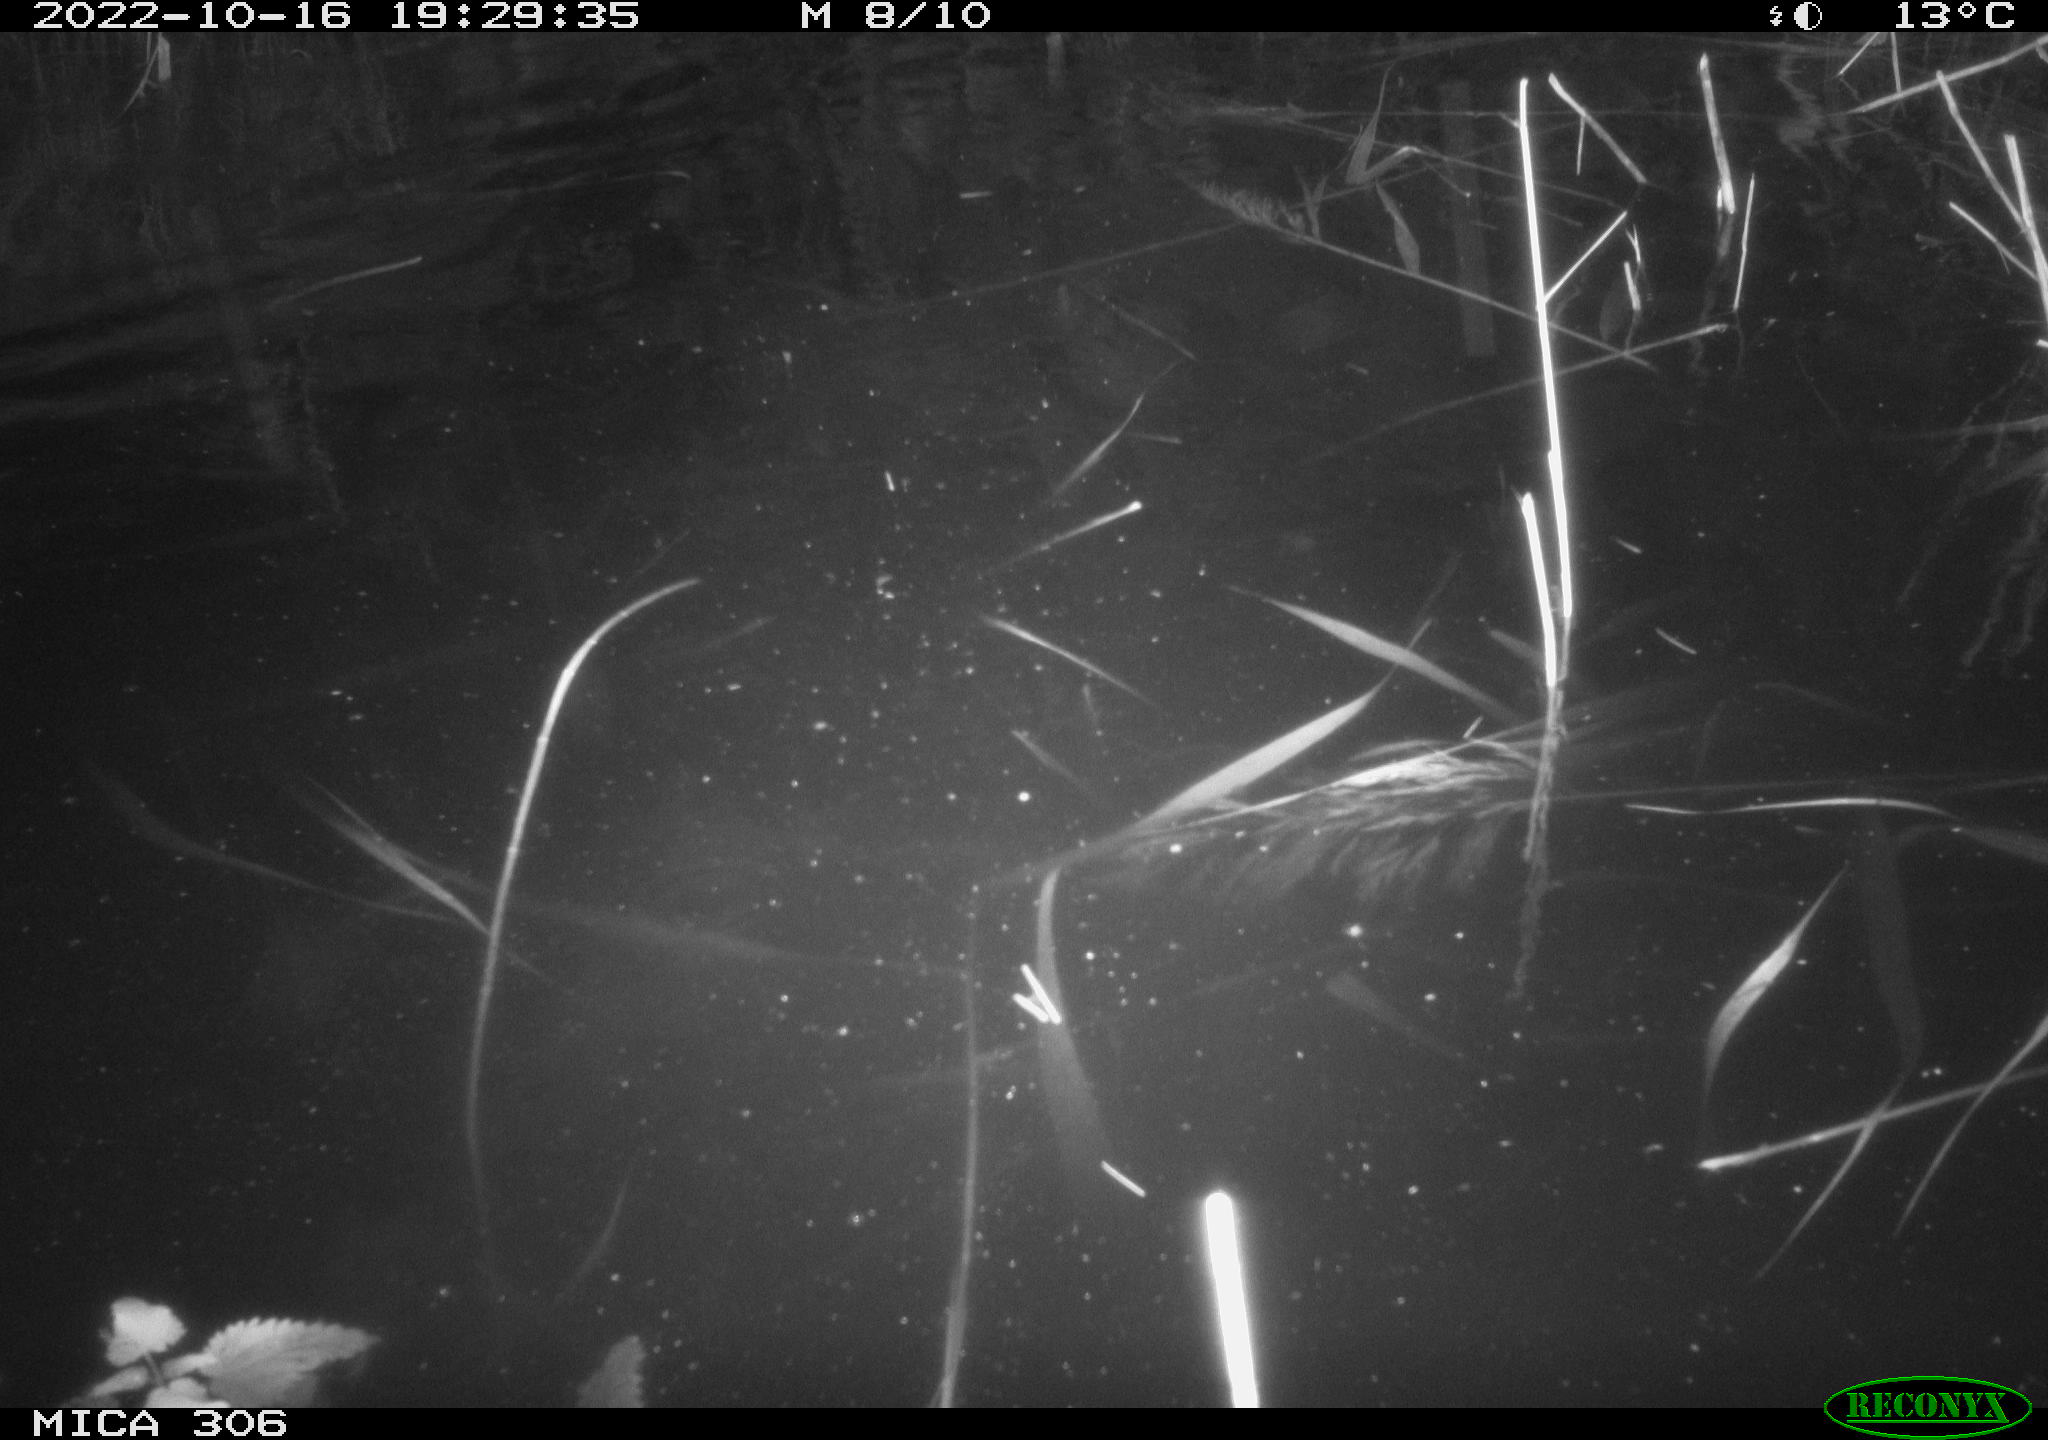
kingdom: Animalia
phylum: Chordata
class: Mammalia
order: Rodentia
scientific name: Rodentia
